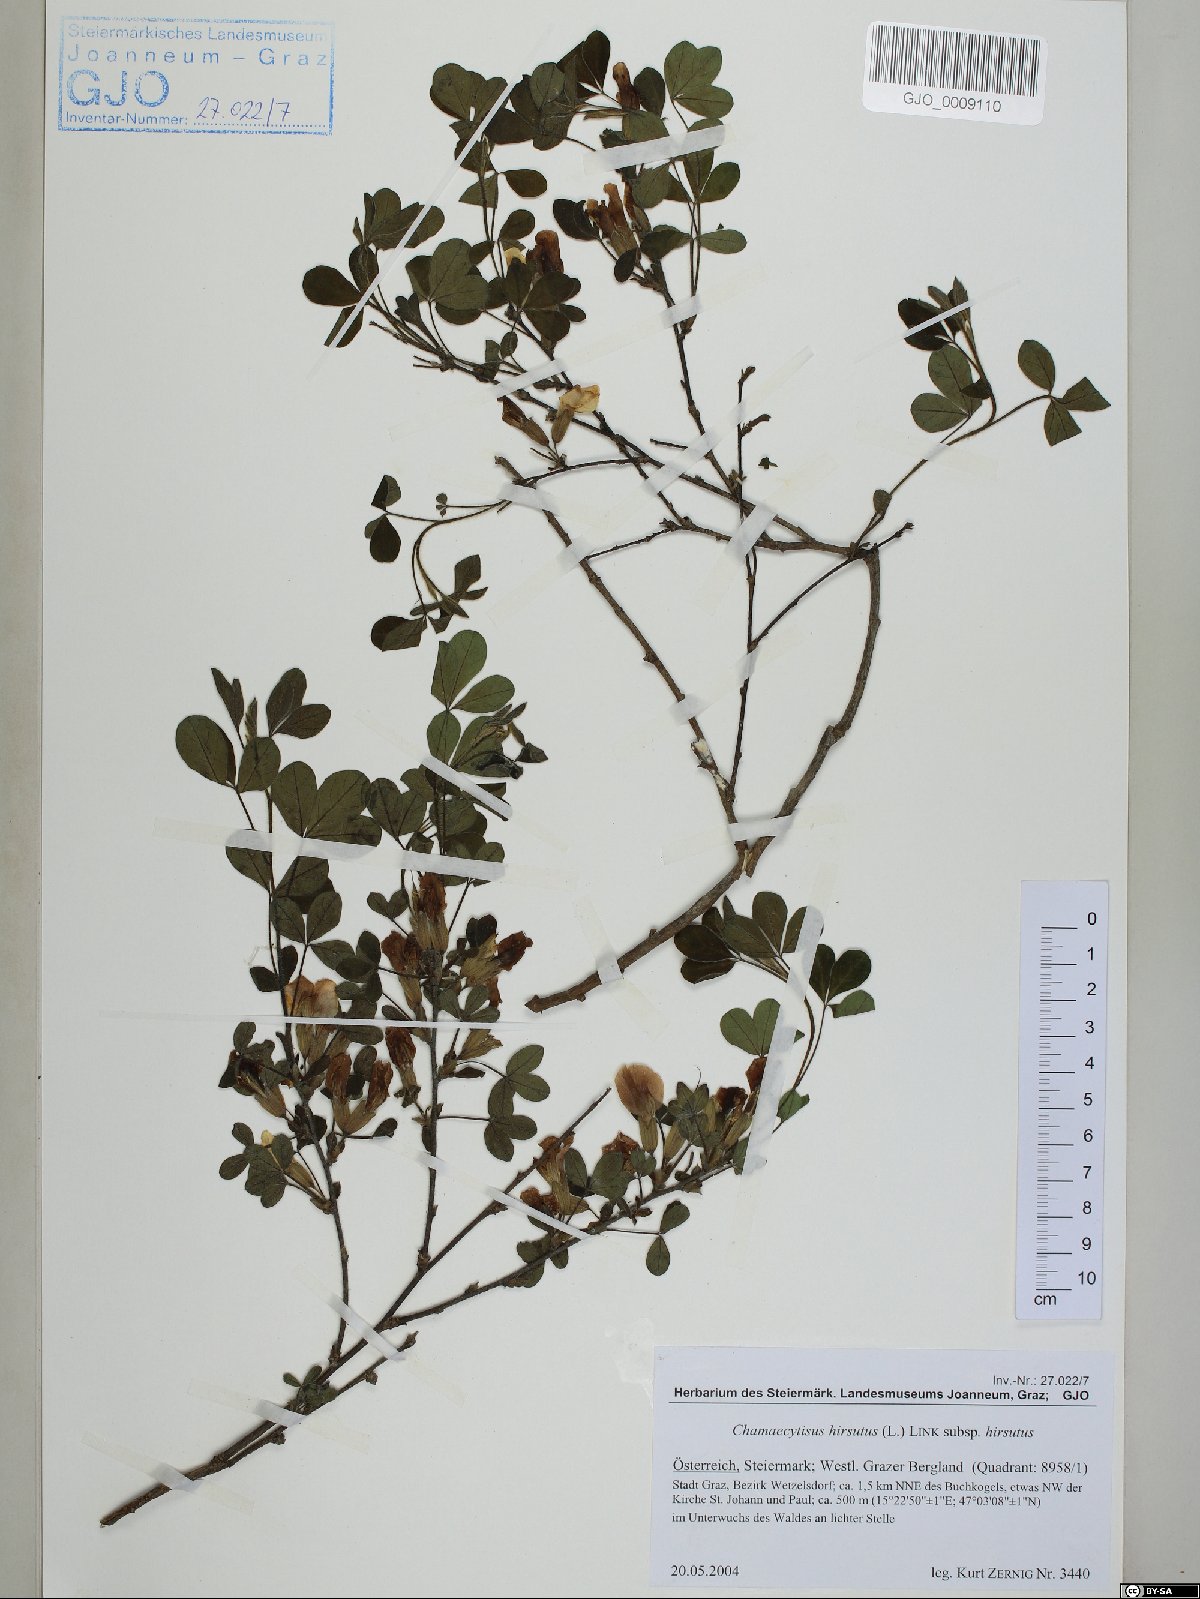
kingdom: Plantae
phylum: Tracheophyta
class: Magnoliopsida
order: Fabales
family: Fabaceae
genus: Chamaecytisus
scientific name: Chamaecytisus hirsutus
